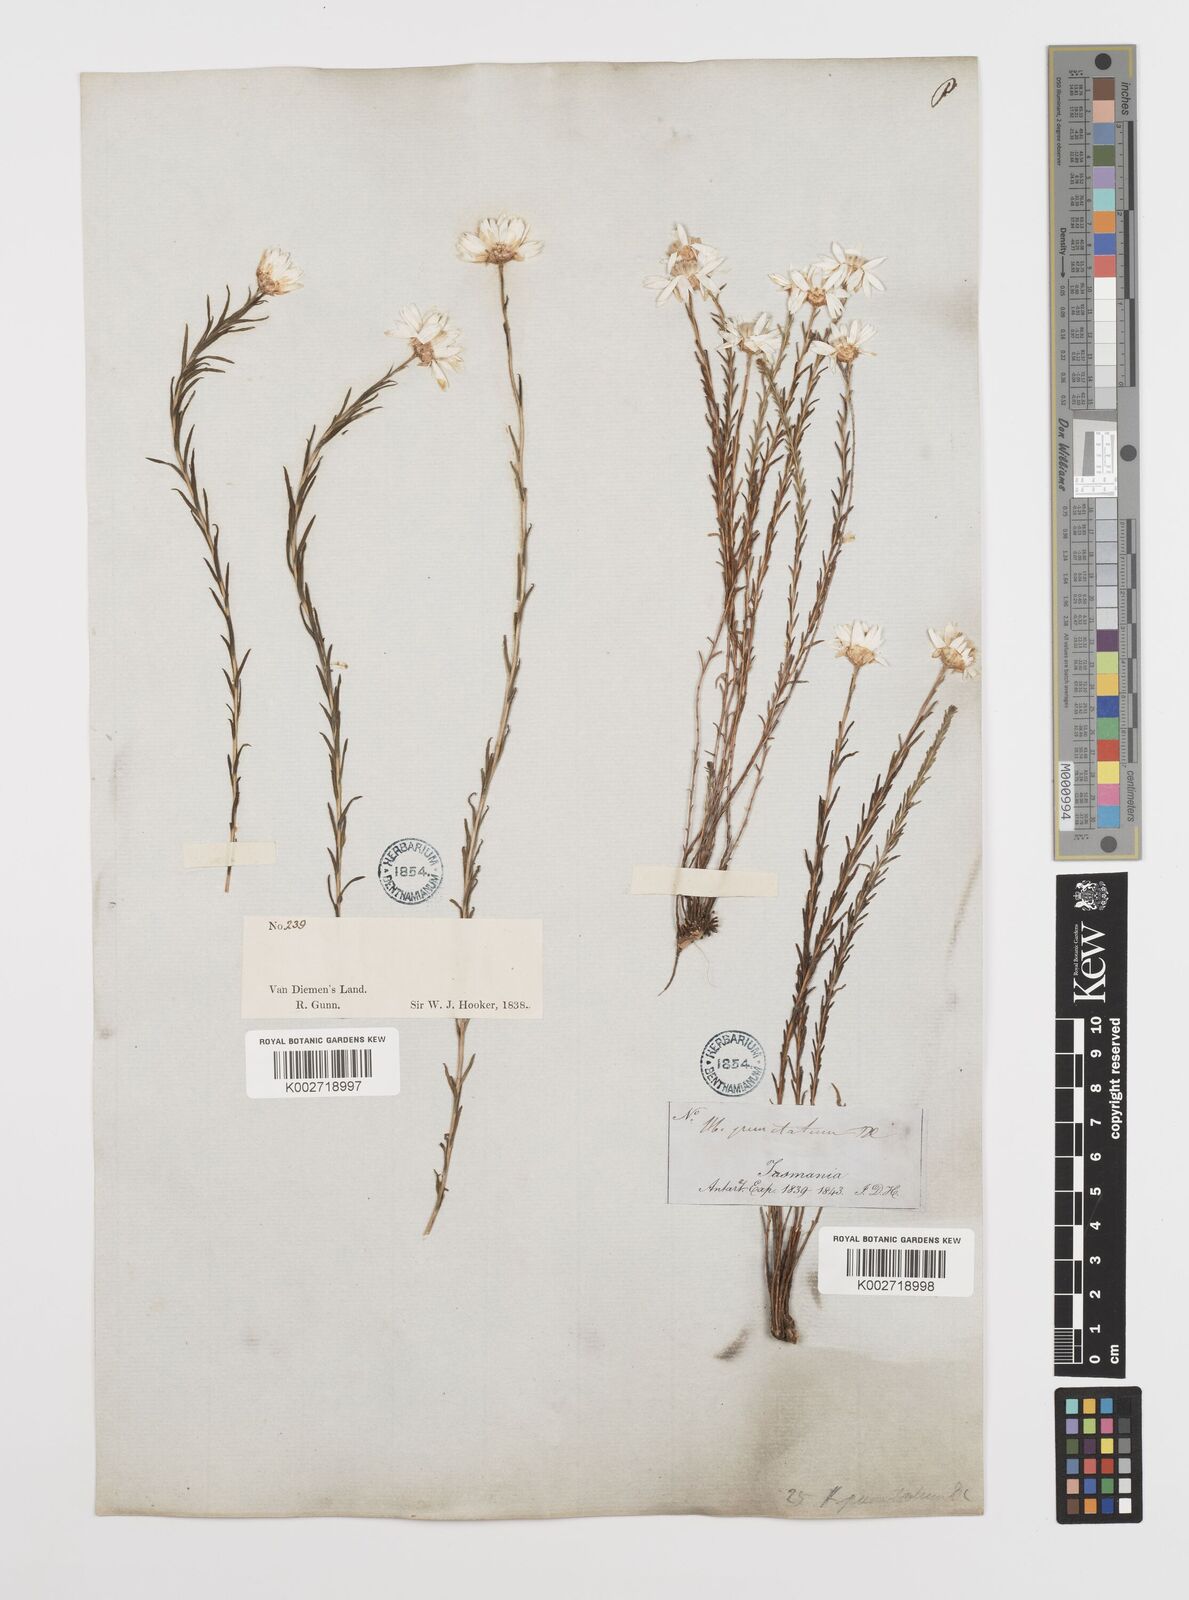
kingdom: Plantae
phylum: Tracheophyta
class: Magnoliopsida
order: Asterales
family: Asteraceae
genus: Rhodanthe
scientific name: Rhodanthe anthemoides
